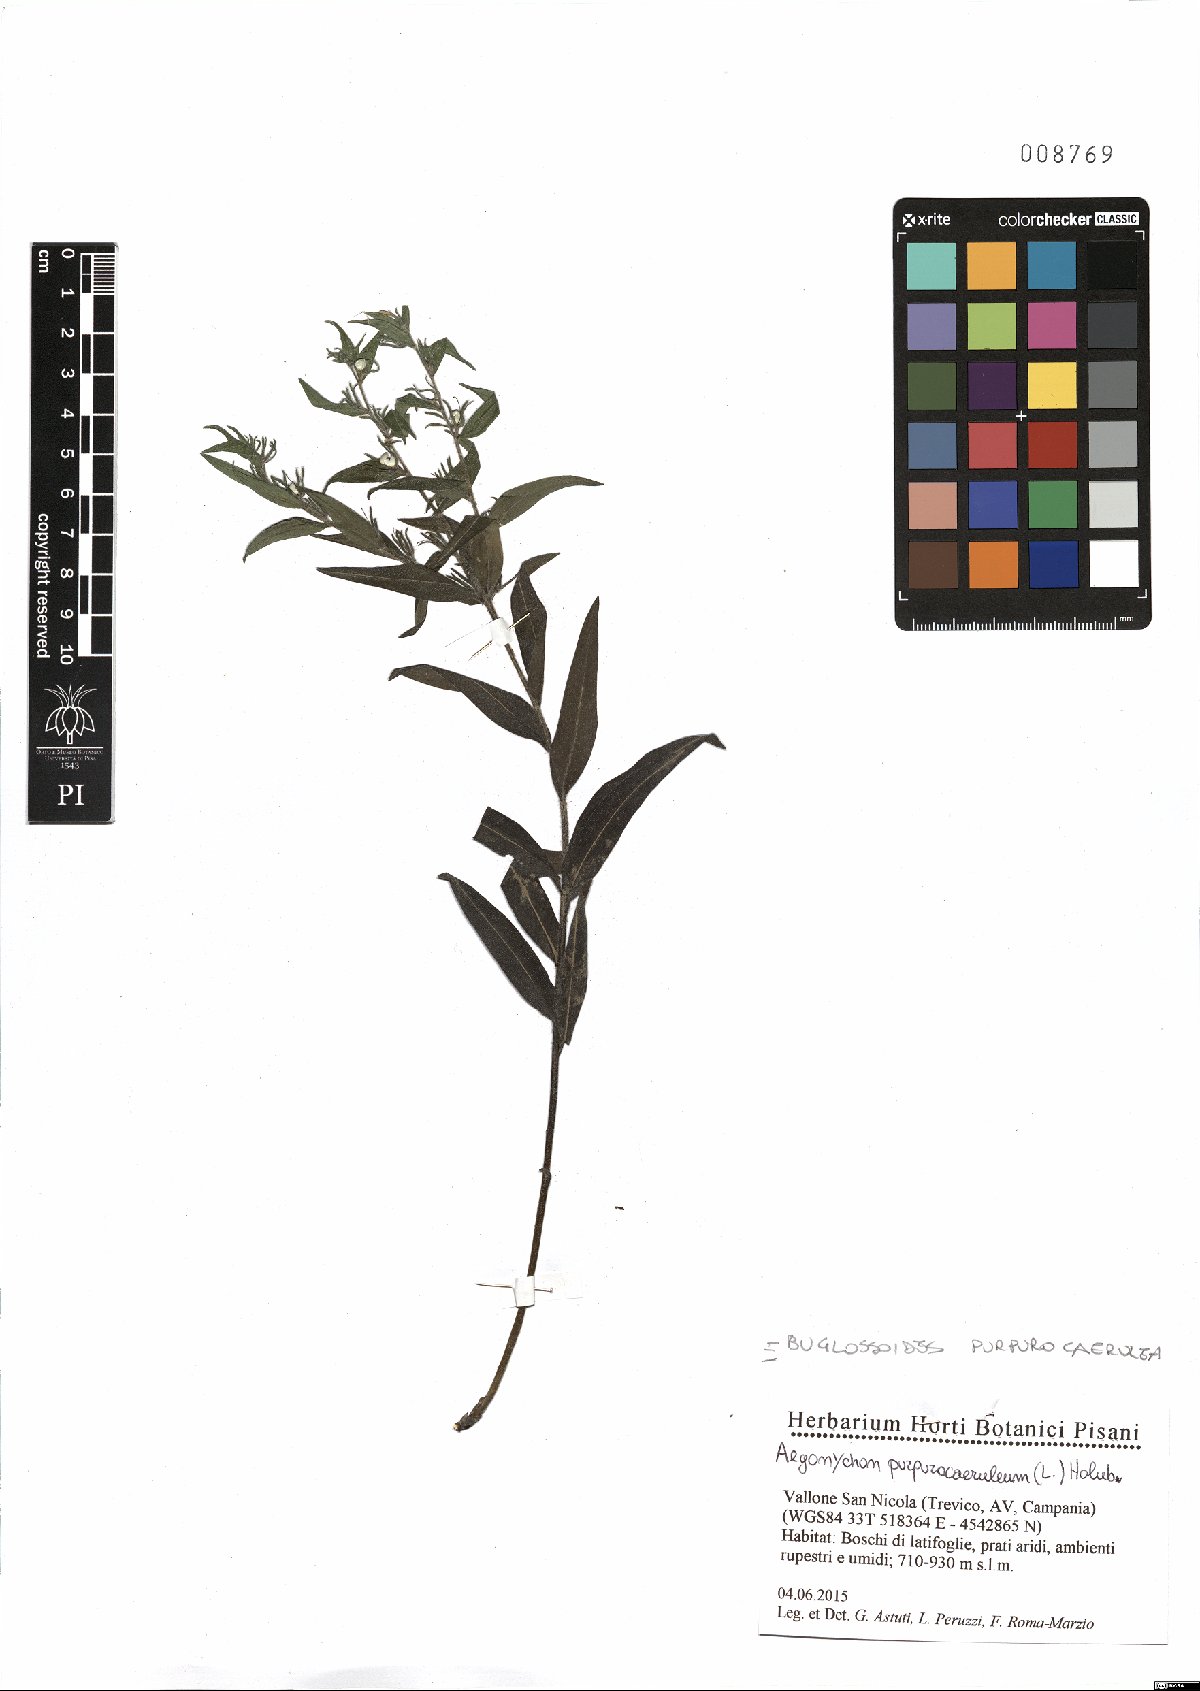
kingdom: Plantae
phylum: Tracheophyta
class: Magnoliopsida
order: Boraginales
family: Boraginaceae
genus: Aegonychon
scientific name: Aegonychon purpurocaeruleum
